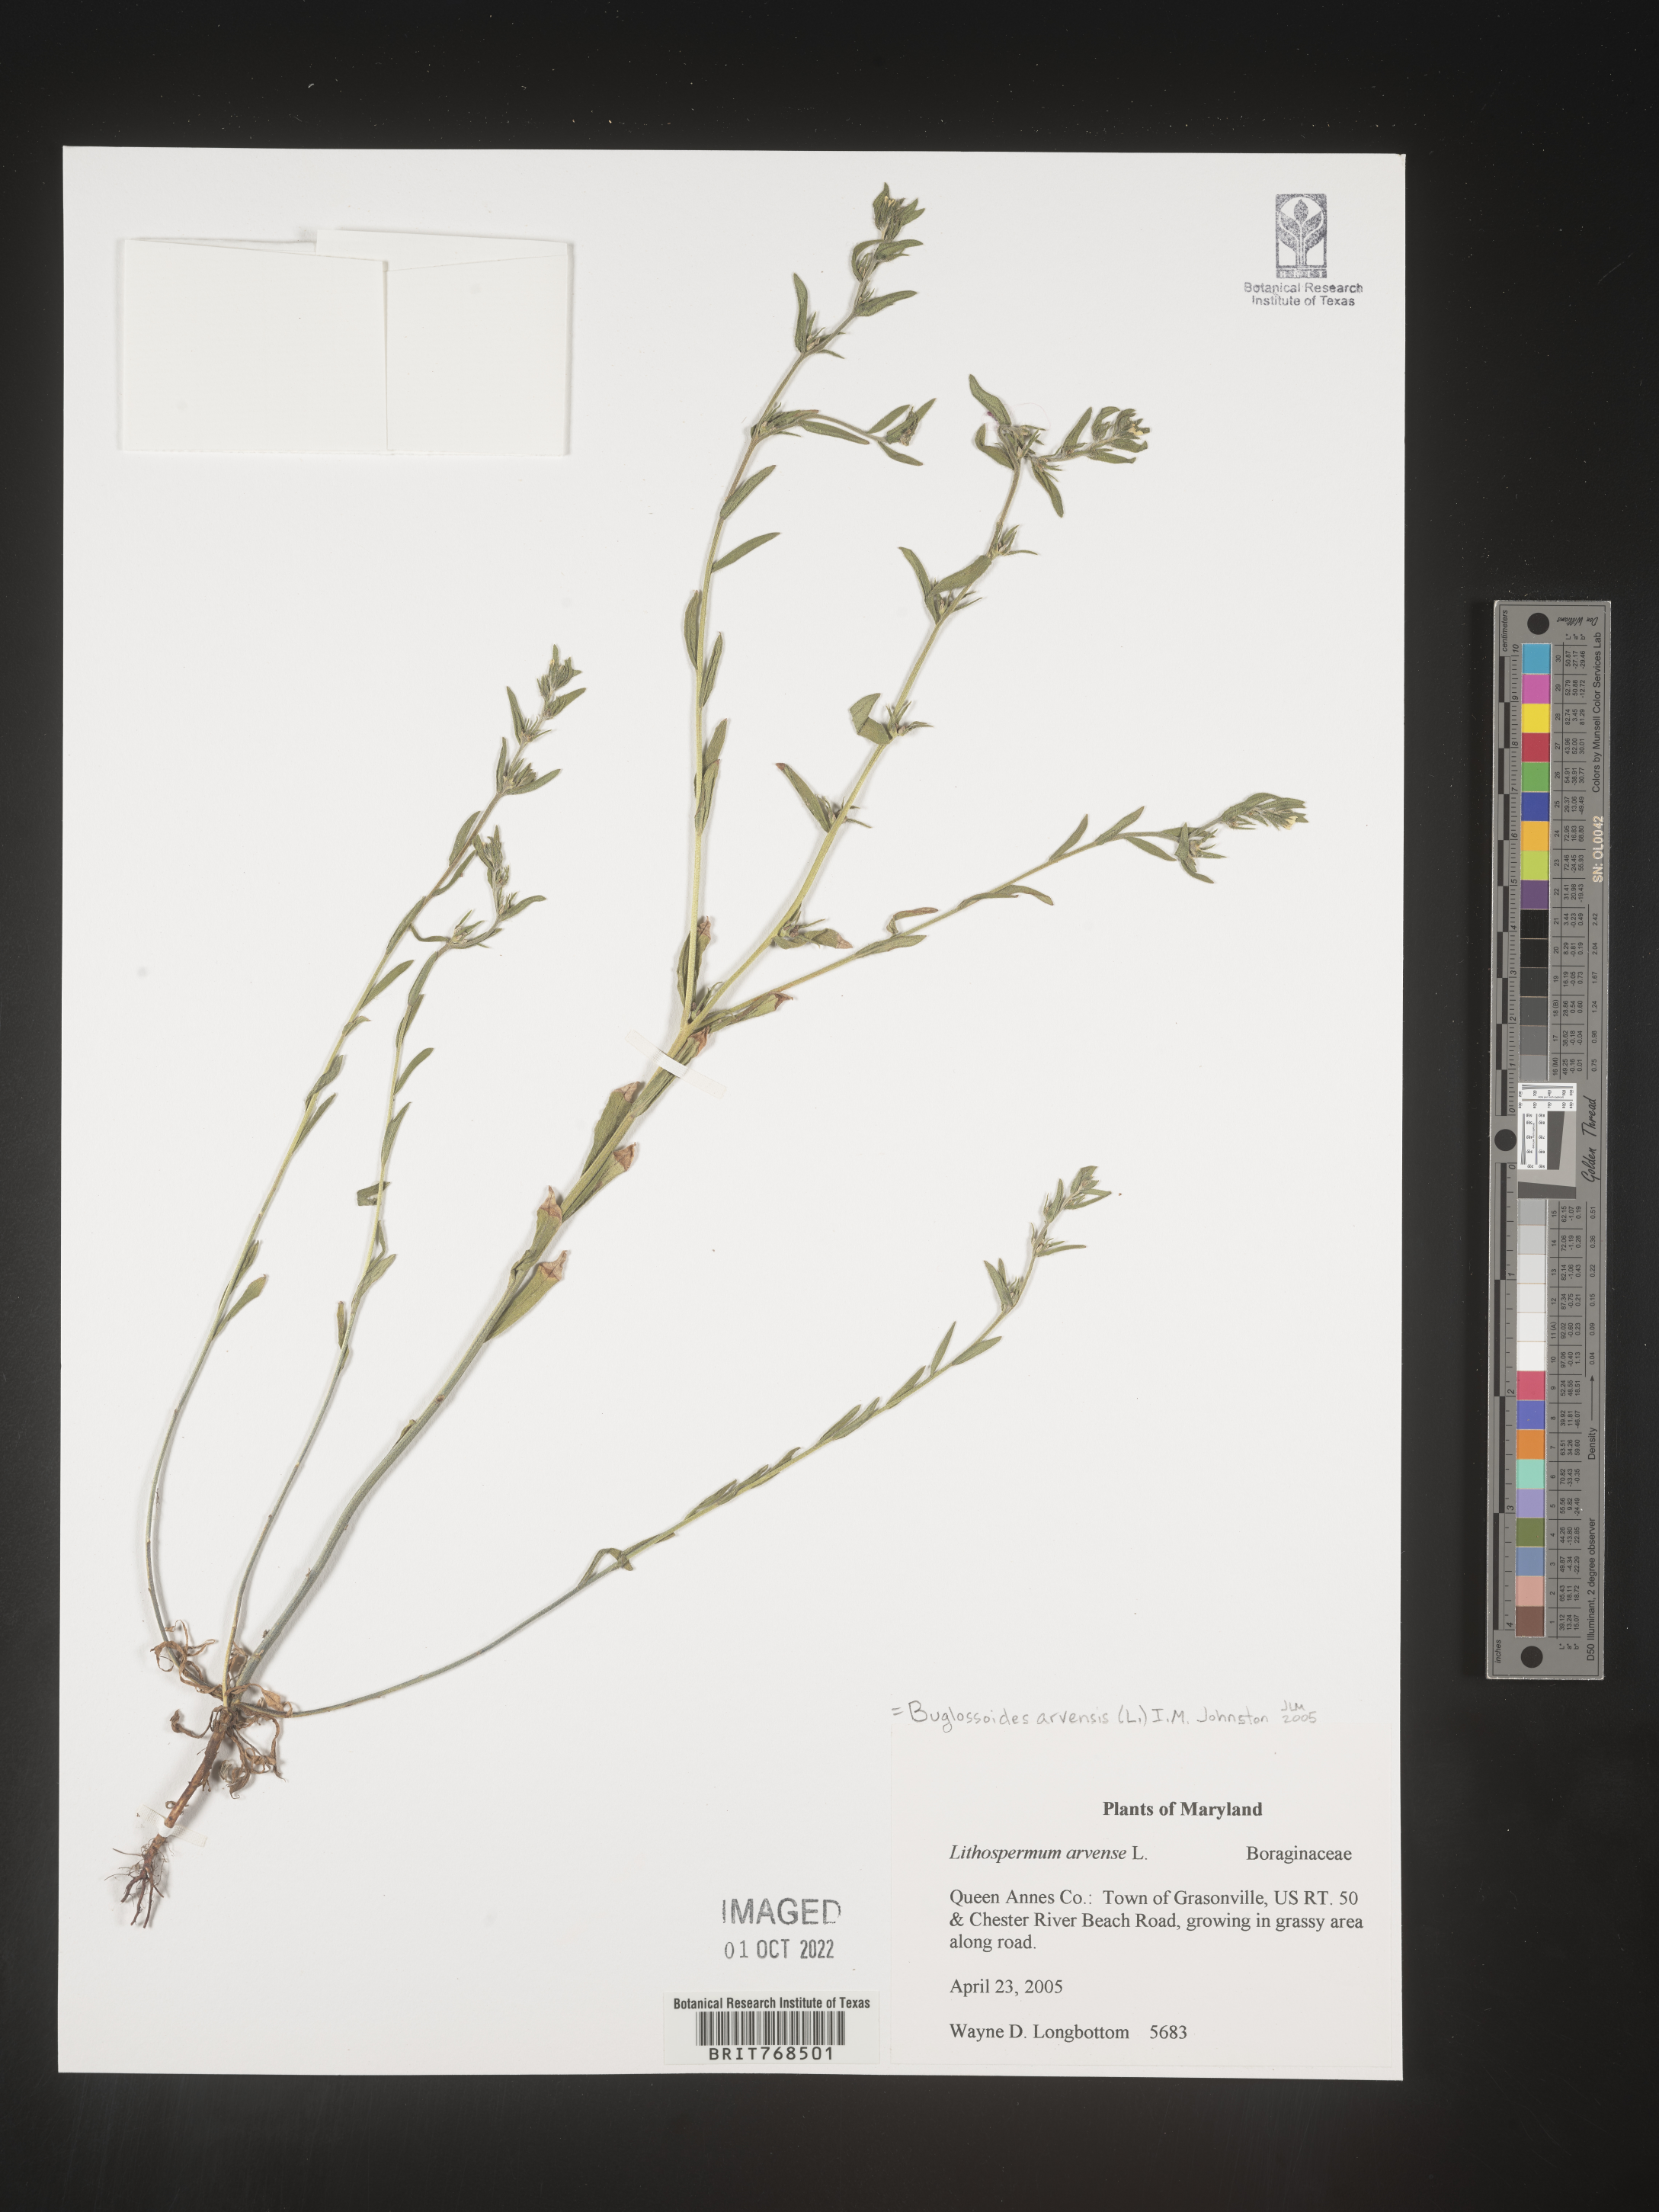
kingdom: Plantae
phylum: Tracheophyta
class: Magnoliopsida
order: Boraginales
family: Boraginaceae
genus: Lithospermum
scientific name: Lithospermum
